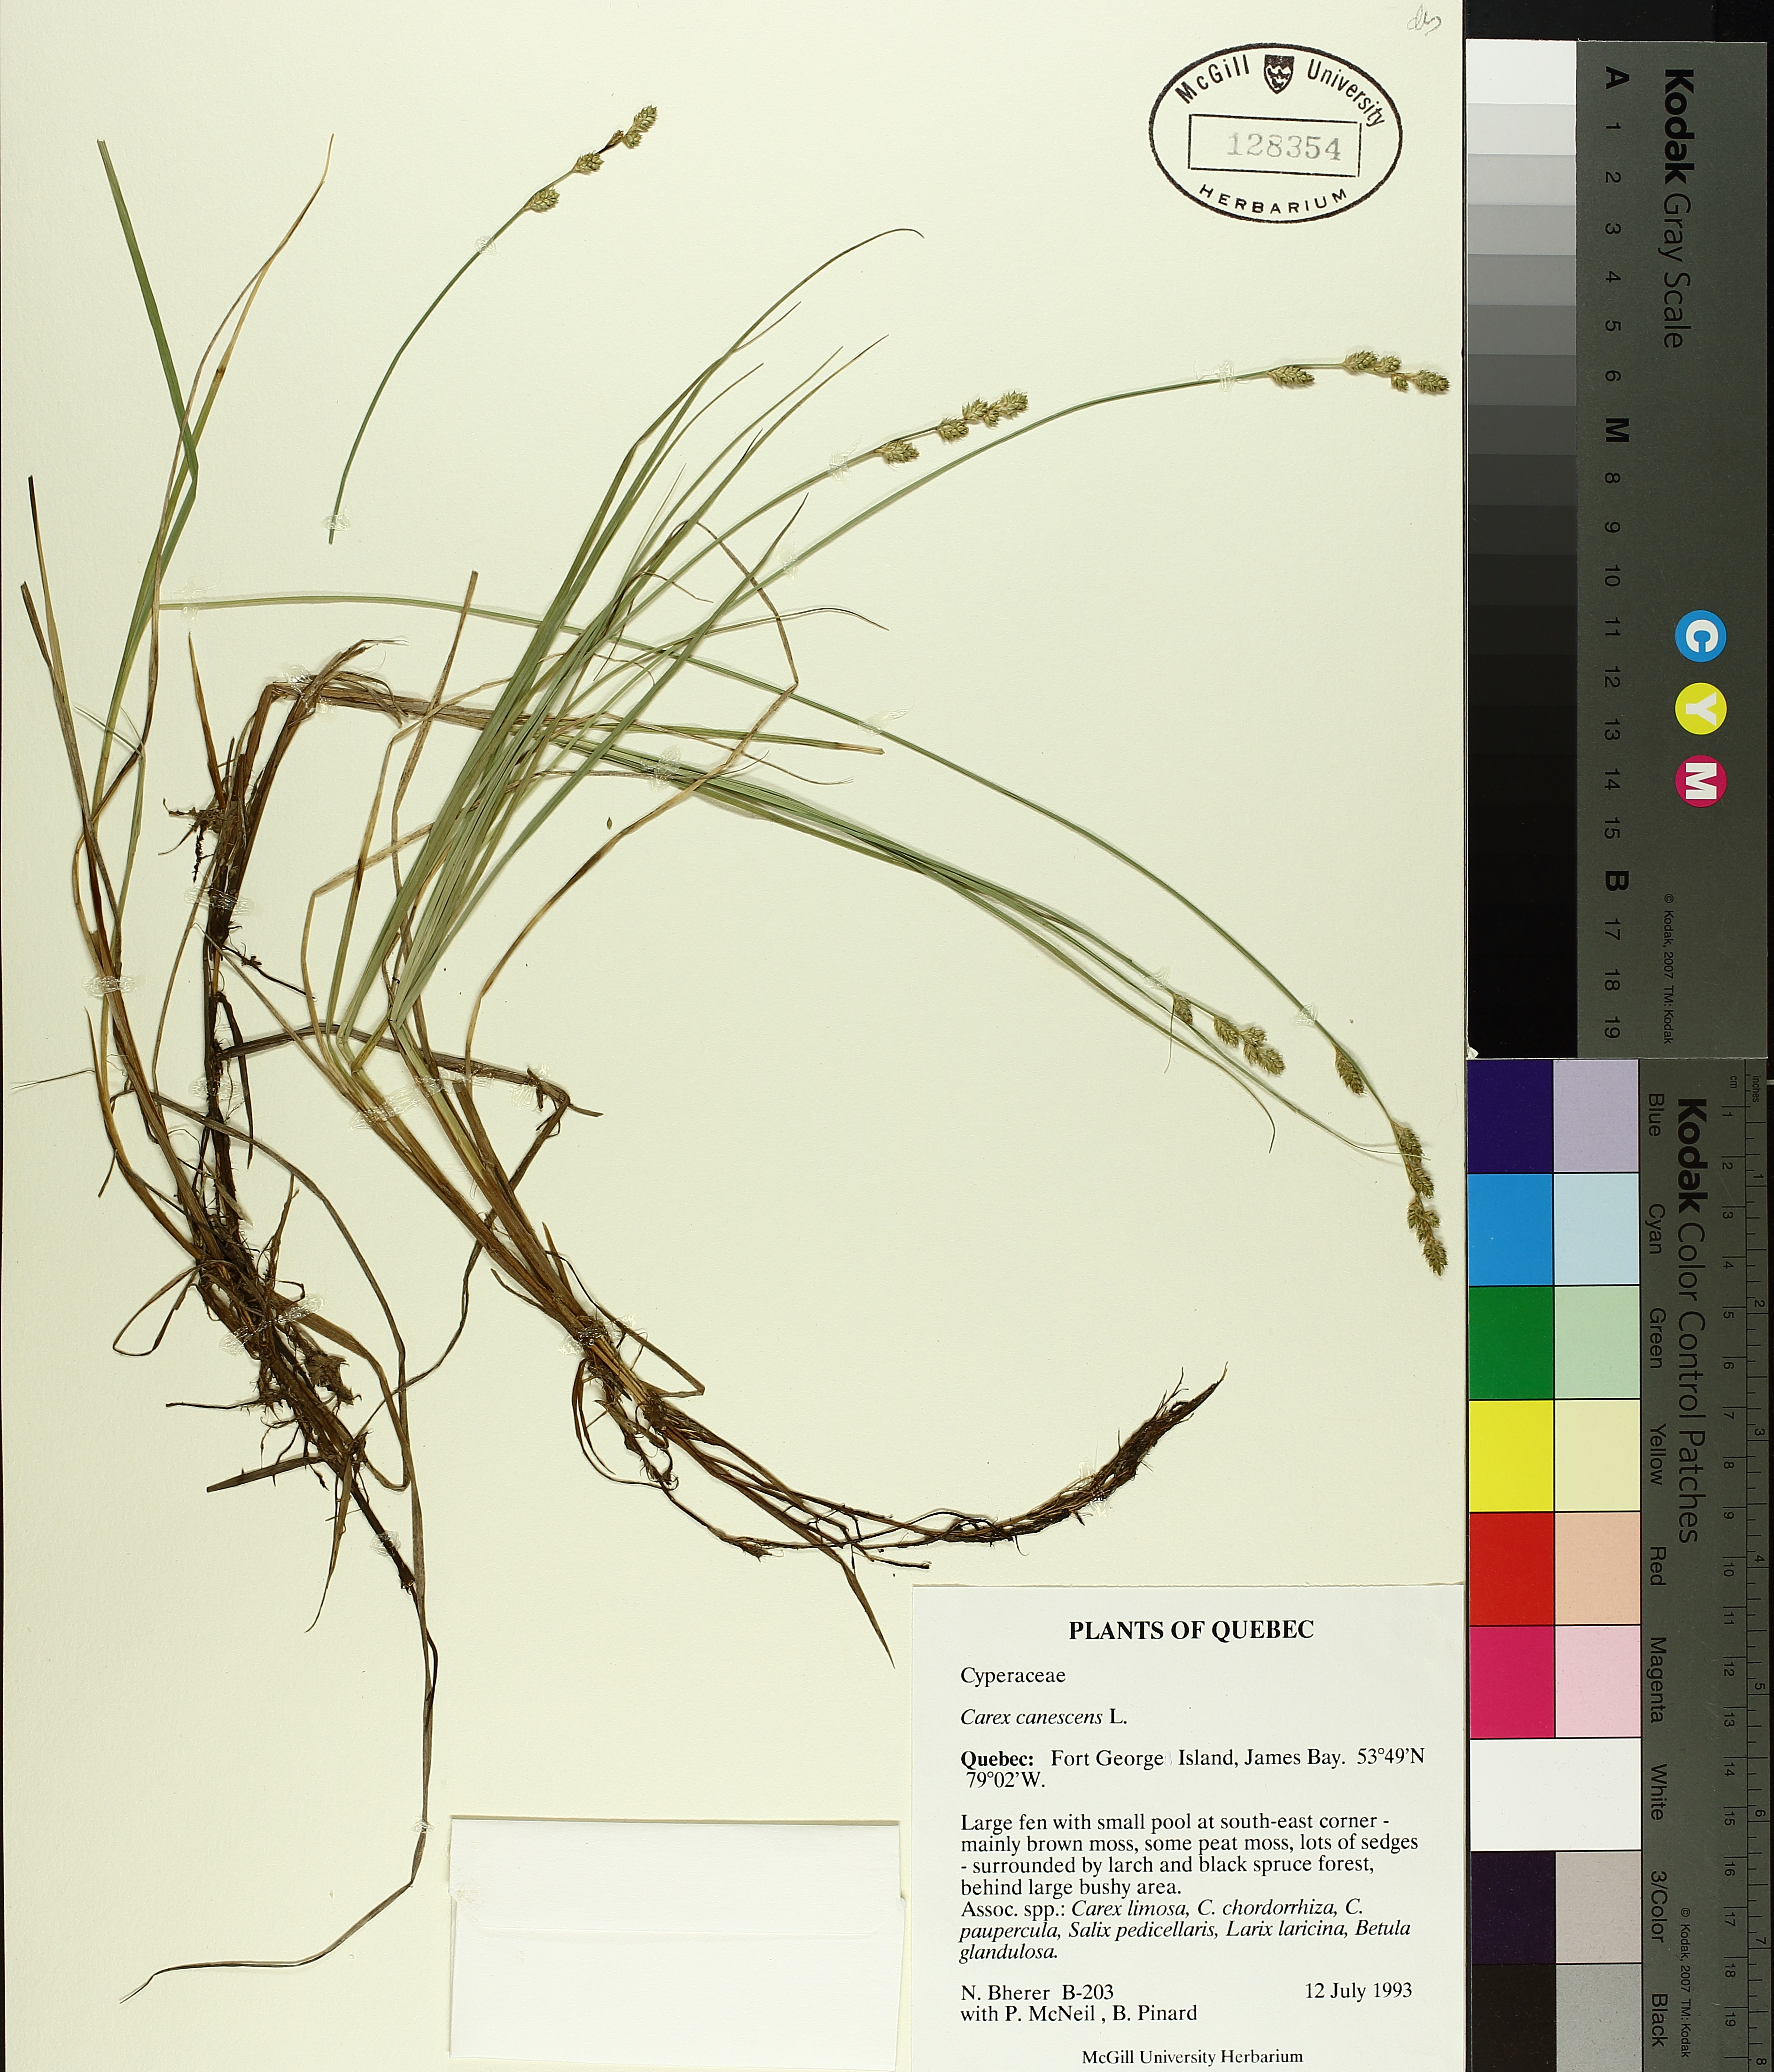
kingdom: Plantae
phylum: Tracheophyta
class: Liliopsida
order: Poales
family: Cyperaceae
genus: Carex
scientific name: Carex canescens
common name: White sedge
